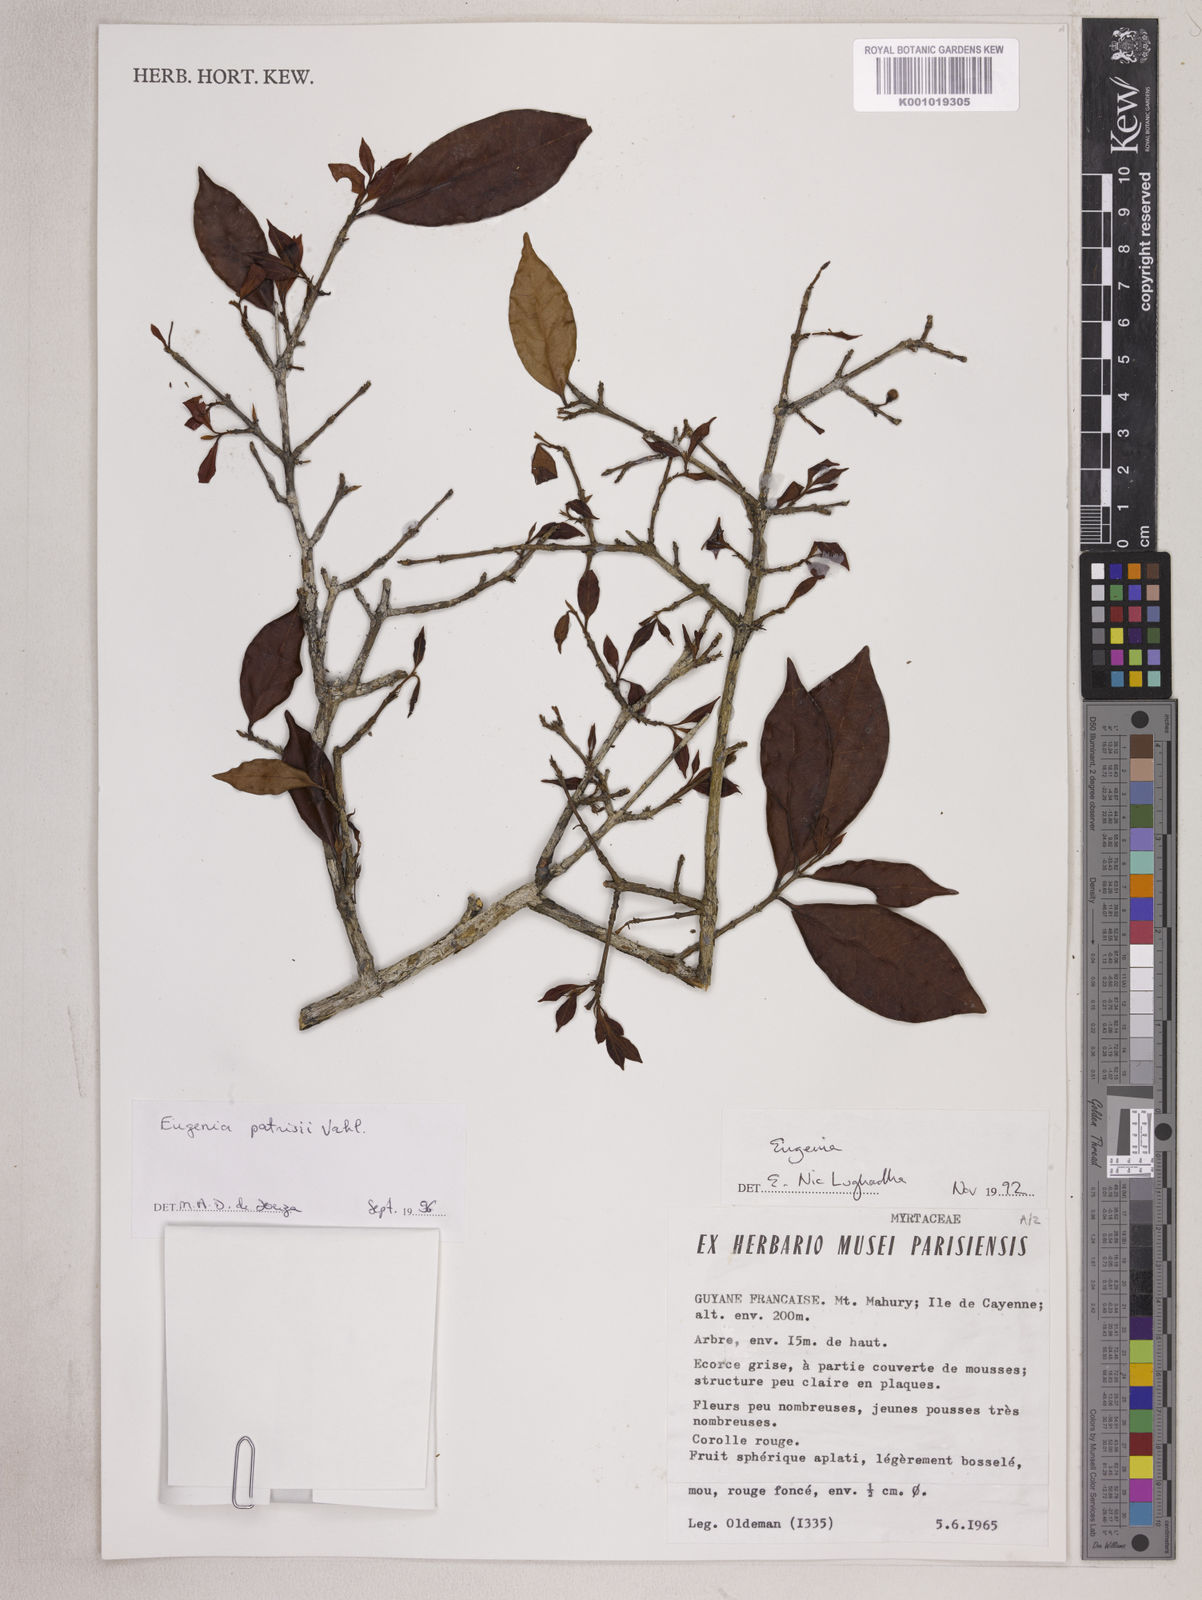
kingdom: Plantae
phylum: Tracheophyta
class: Magnoliopsida
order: Myrtales
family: Myrtaceae
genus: Eugenia
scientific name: Eugenia patrisii
